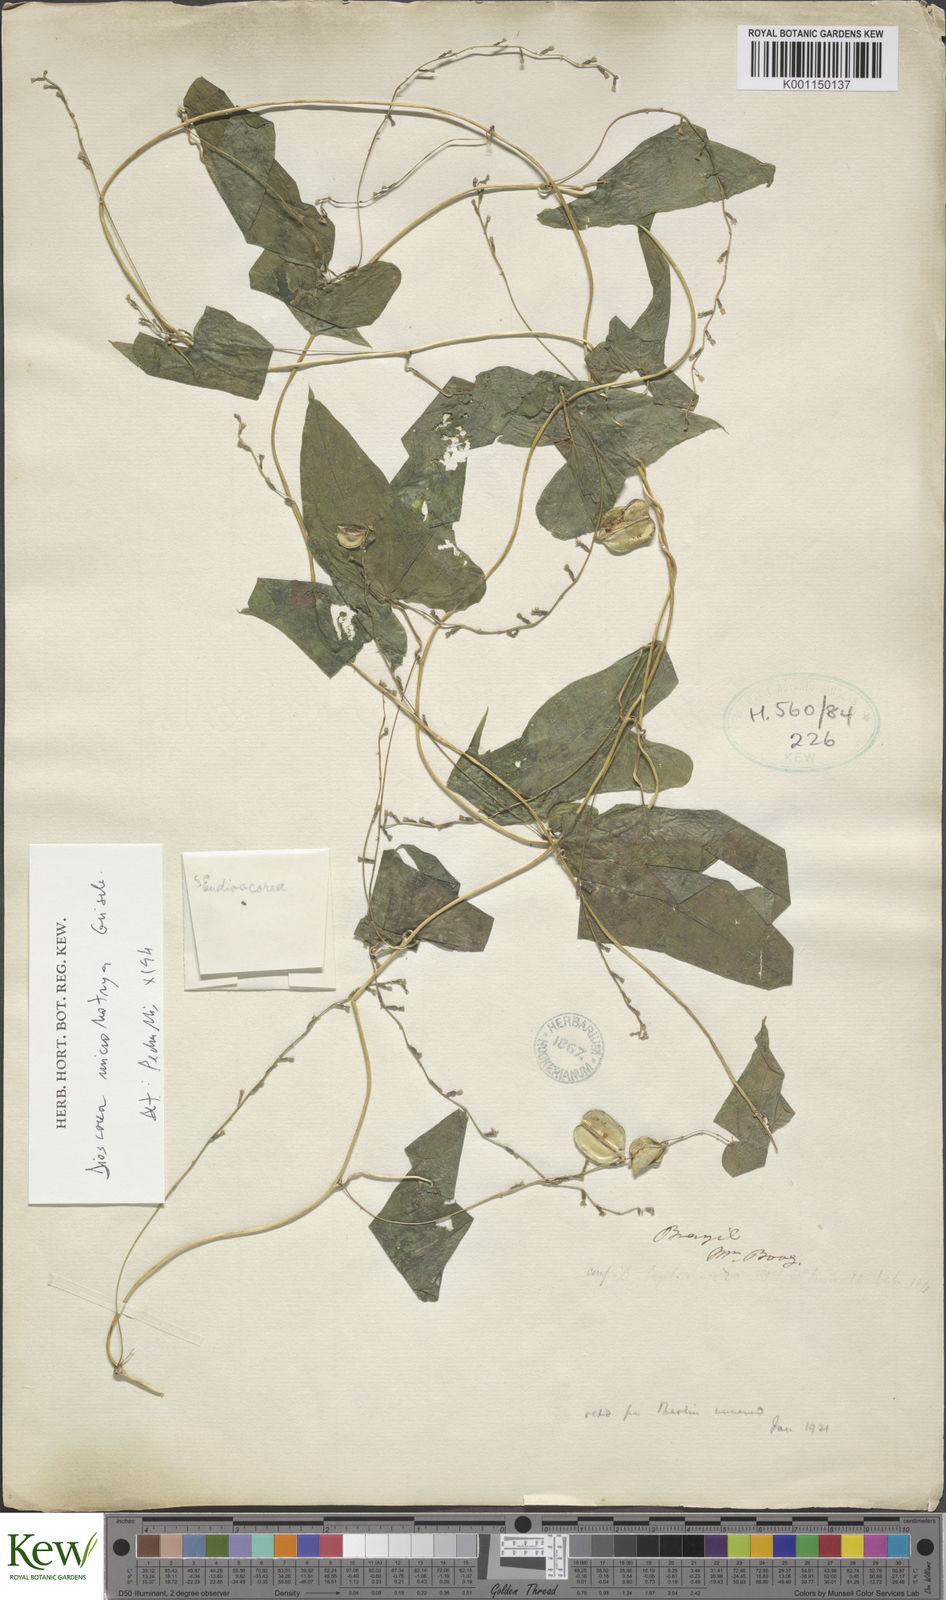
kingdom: Plantae
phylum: Tracheophyta
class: Liliopsida
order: Dioscoreales
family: Dioscoreaceae
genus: Dioscorea
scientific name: Dioscorea martiana
